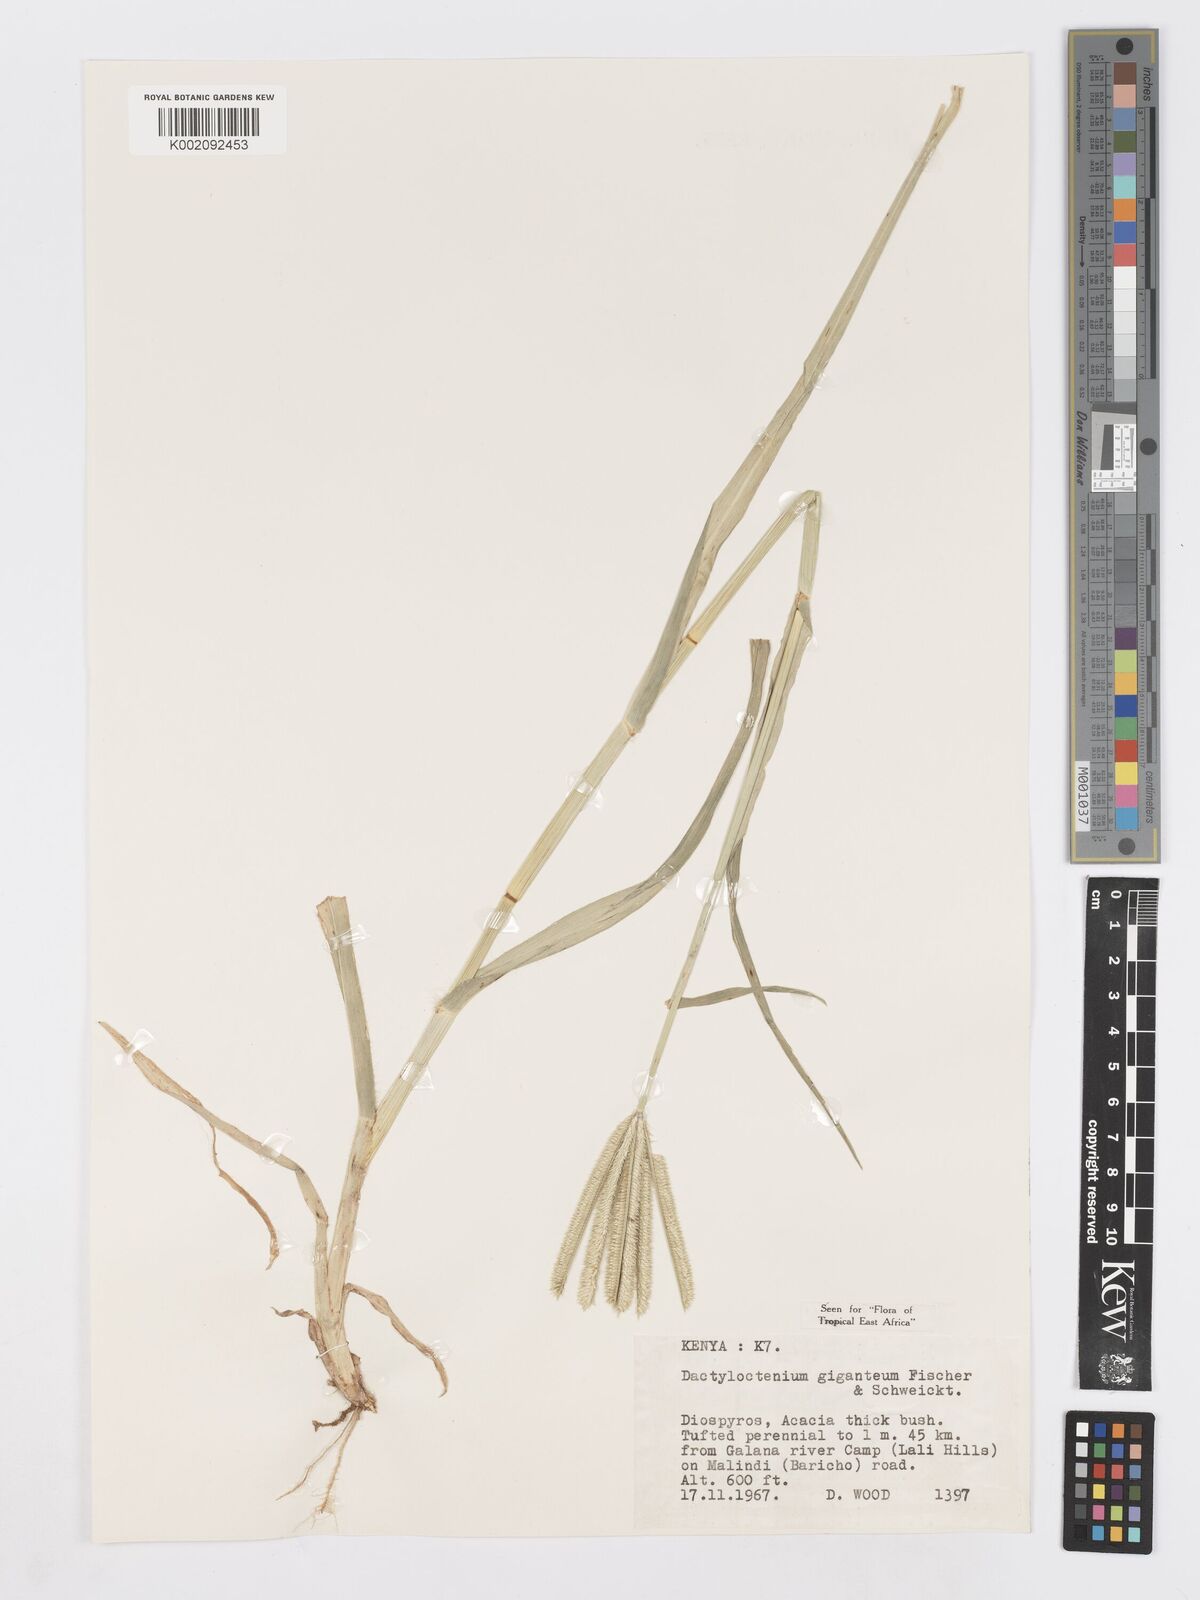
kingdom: Plantae
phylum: Tracheophyta
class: Liliopsida
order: Poales
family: Poaceae
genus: Dactyloctenium
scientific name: Dactyloctenium giganteum
